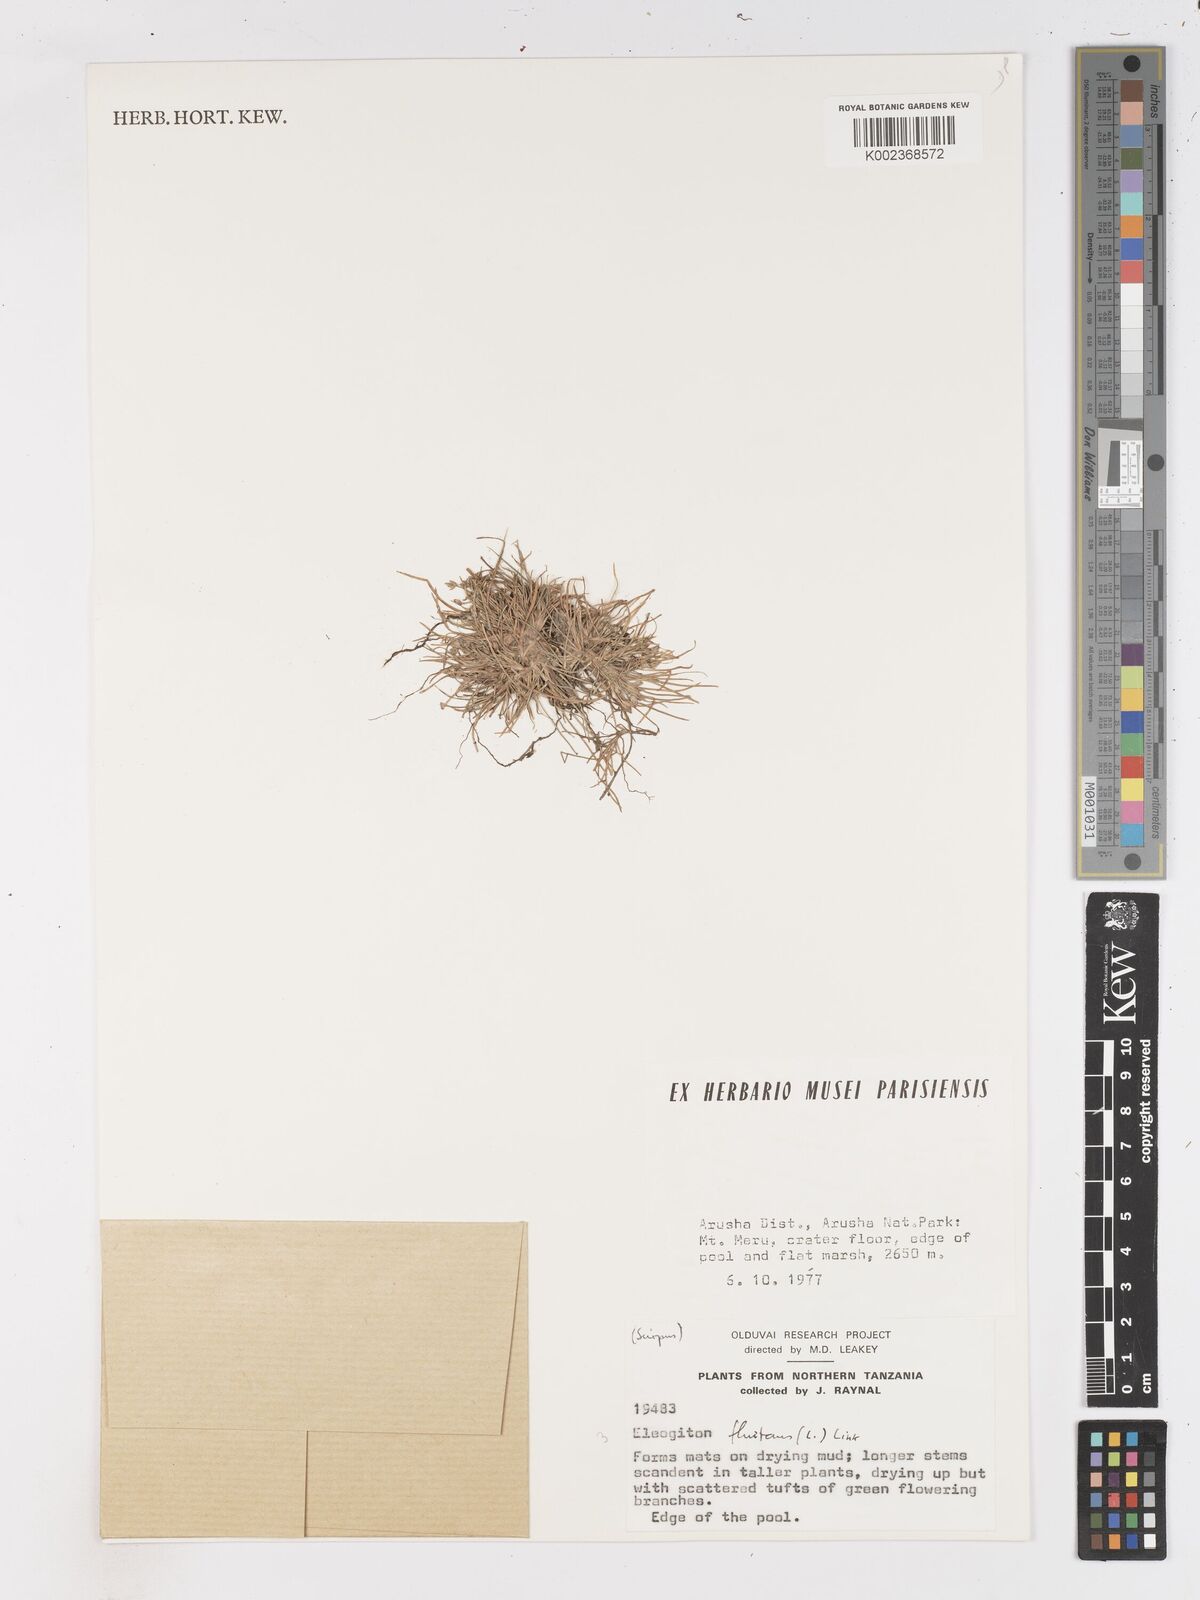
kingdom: Plantae
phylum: Tracheophyta
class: Liliopsida
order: Poales
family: Cyperaceae
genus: Isolepis
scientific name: Isolepis fluitans
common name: Floating club-rush
